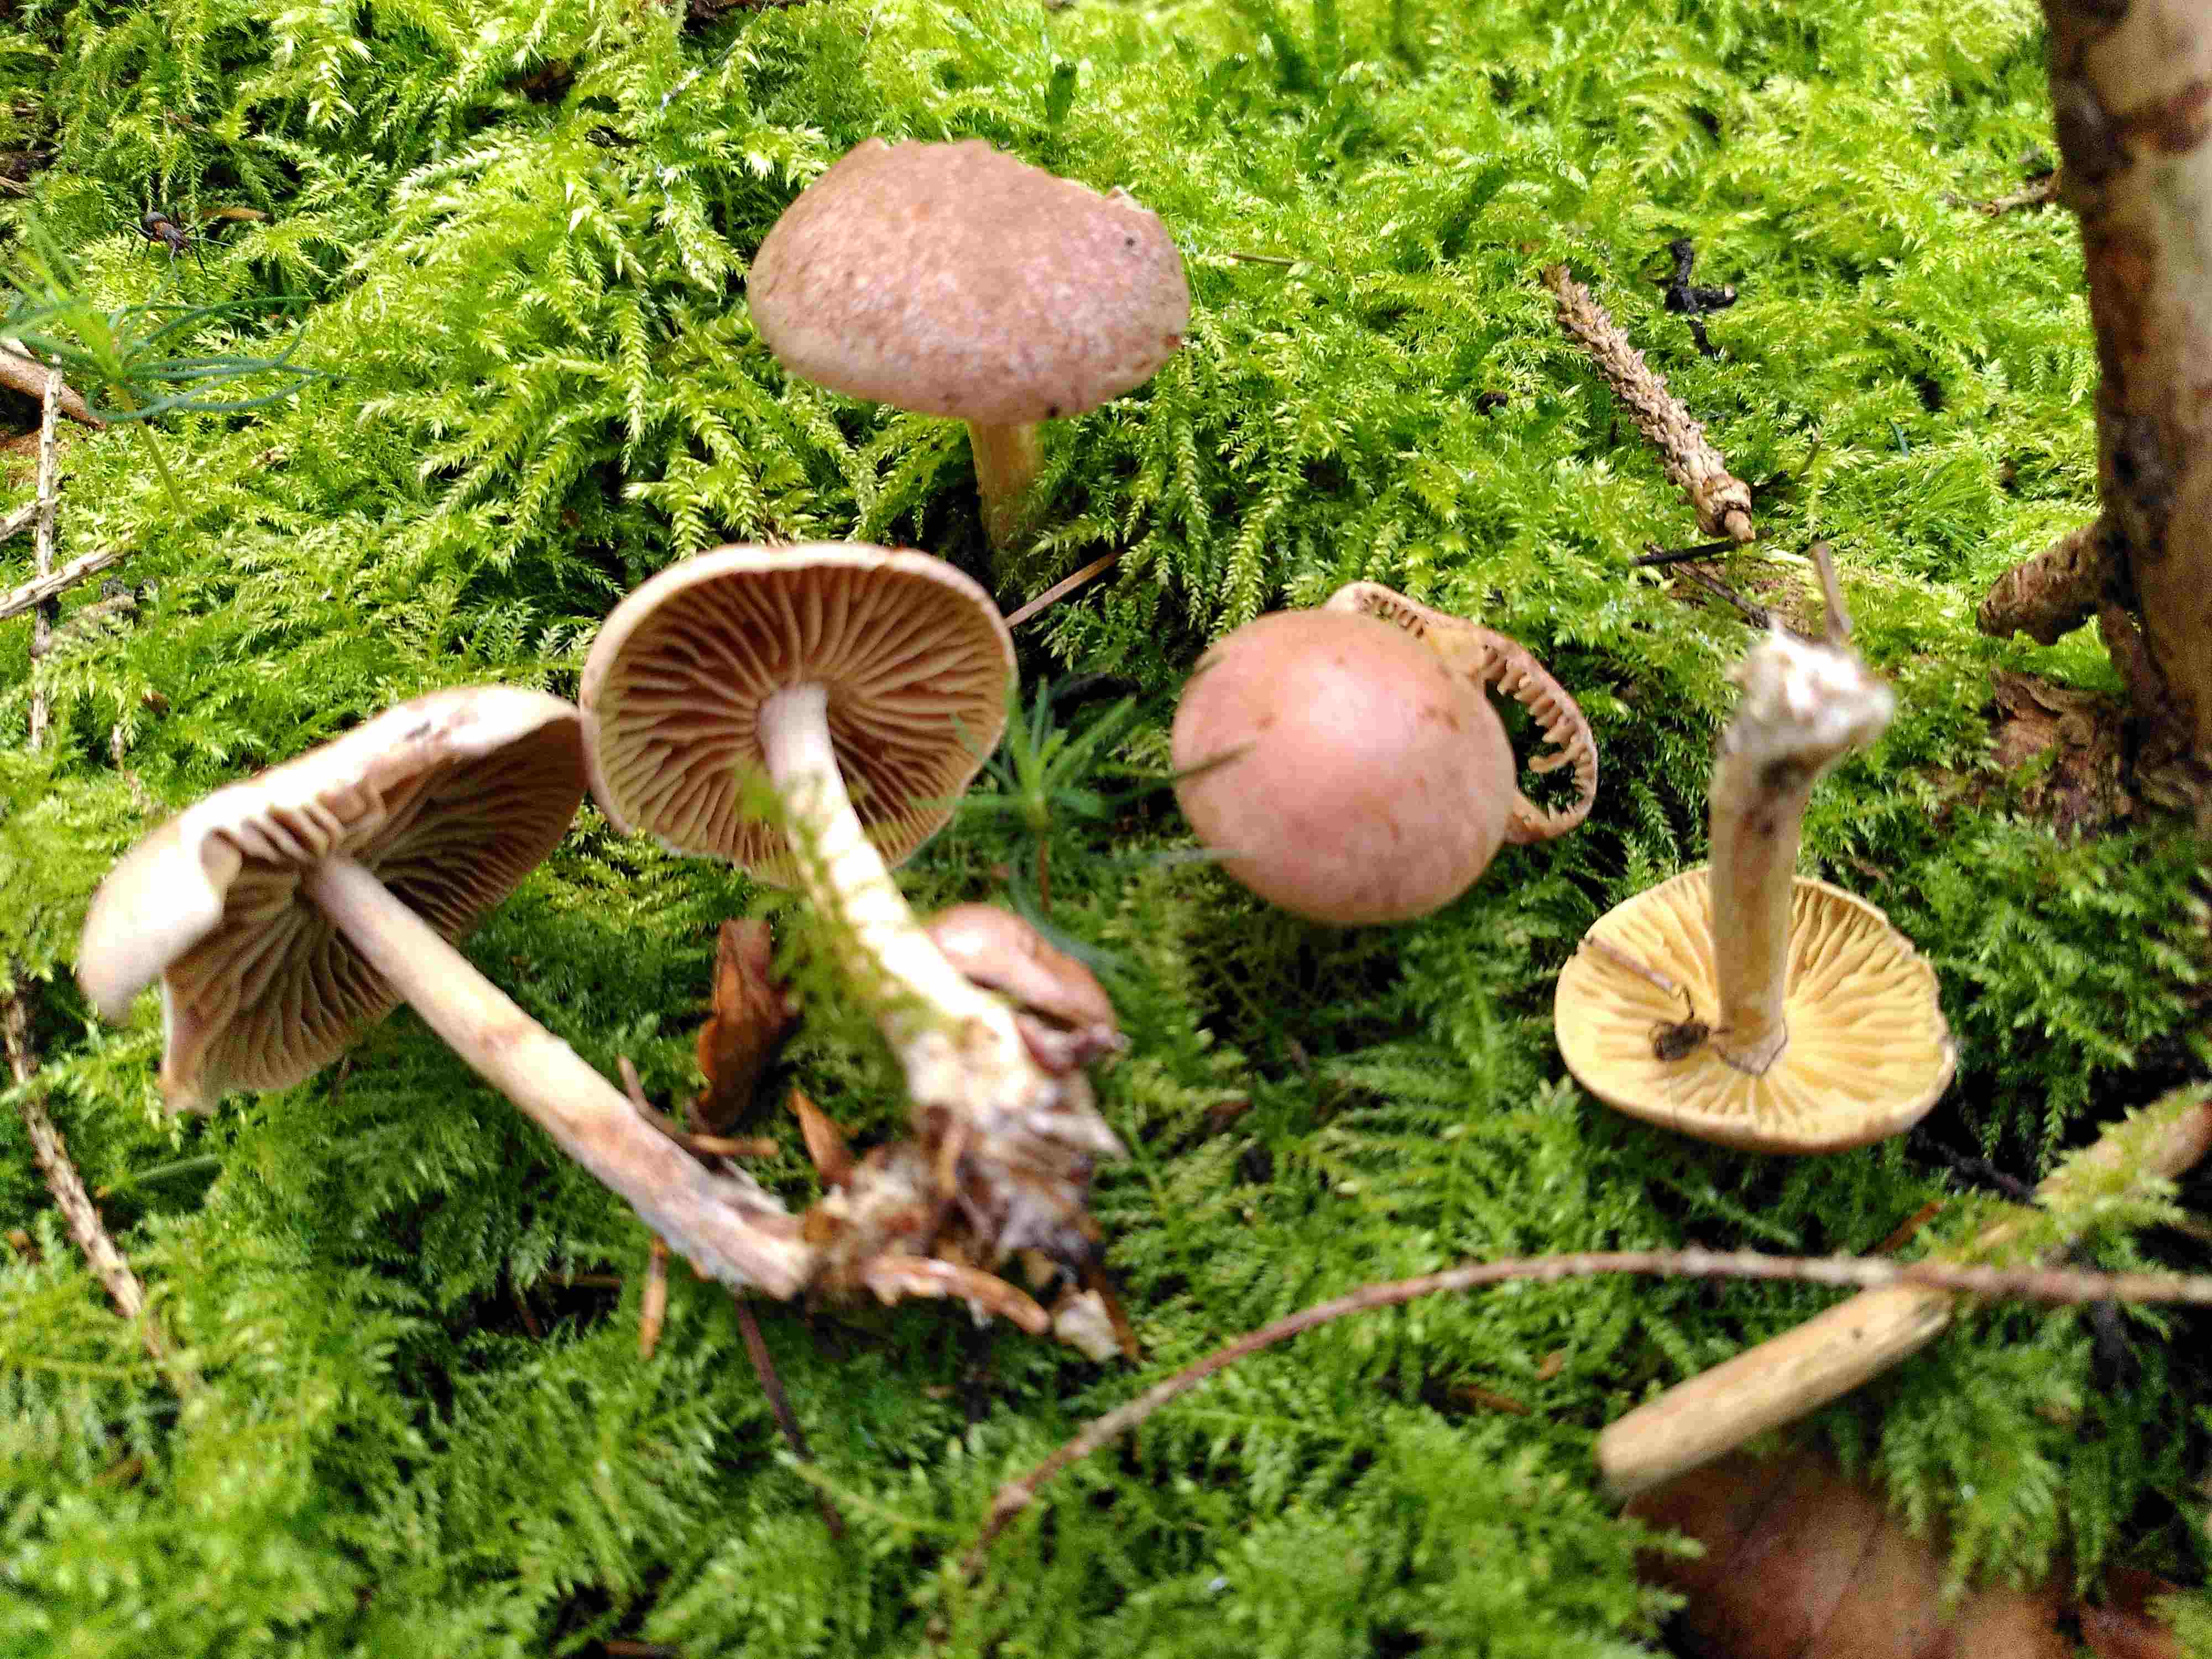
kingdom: Fungi
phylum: Basidiomycota
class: Agaricomycetes
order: Agaricales
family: Omphalotaceae
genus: Collybiopsis
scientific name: Collybiopsis peronata
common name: bestøvlet fladhat
